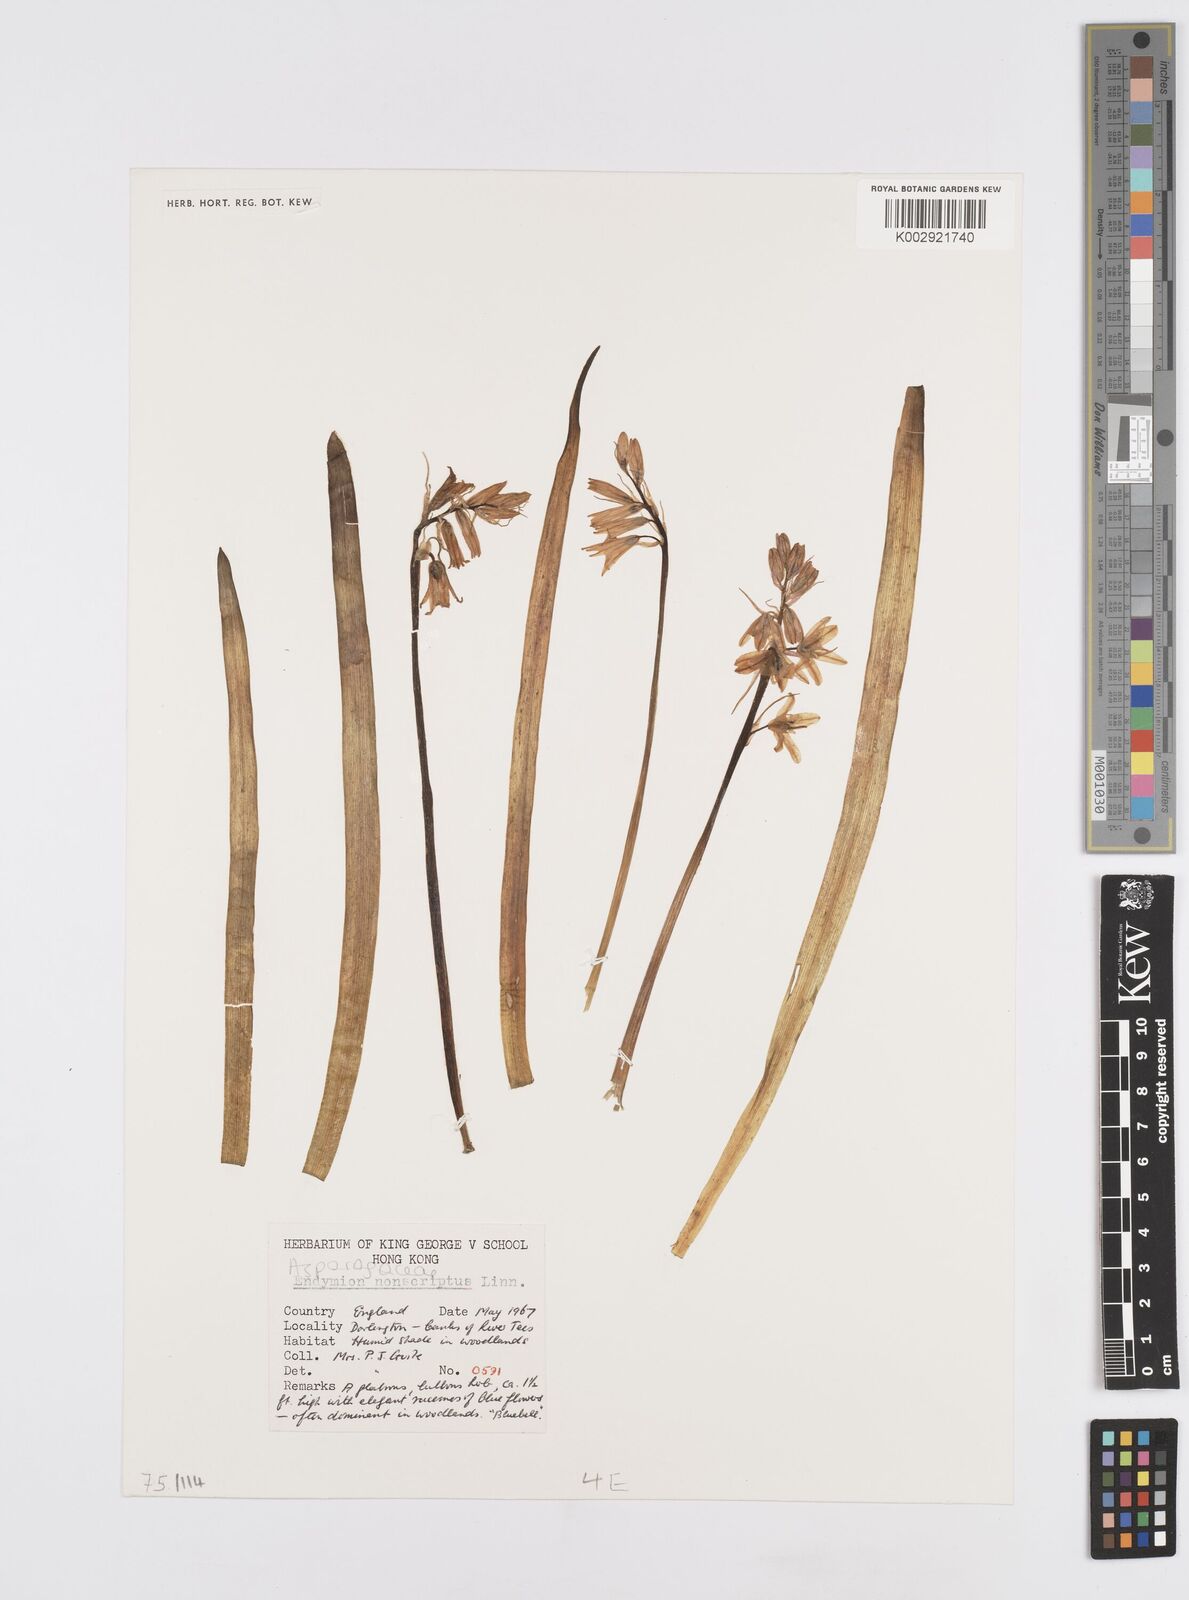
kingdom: Plantae
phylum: Tracheophyta
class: Liliopsida
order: Asparagales
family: Asparagaceae
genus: Hyacinthoides
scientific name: Hyacinthoides non-scripta
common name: Bluebell
